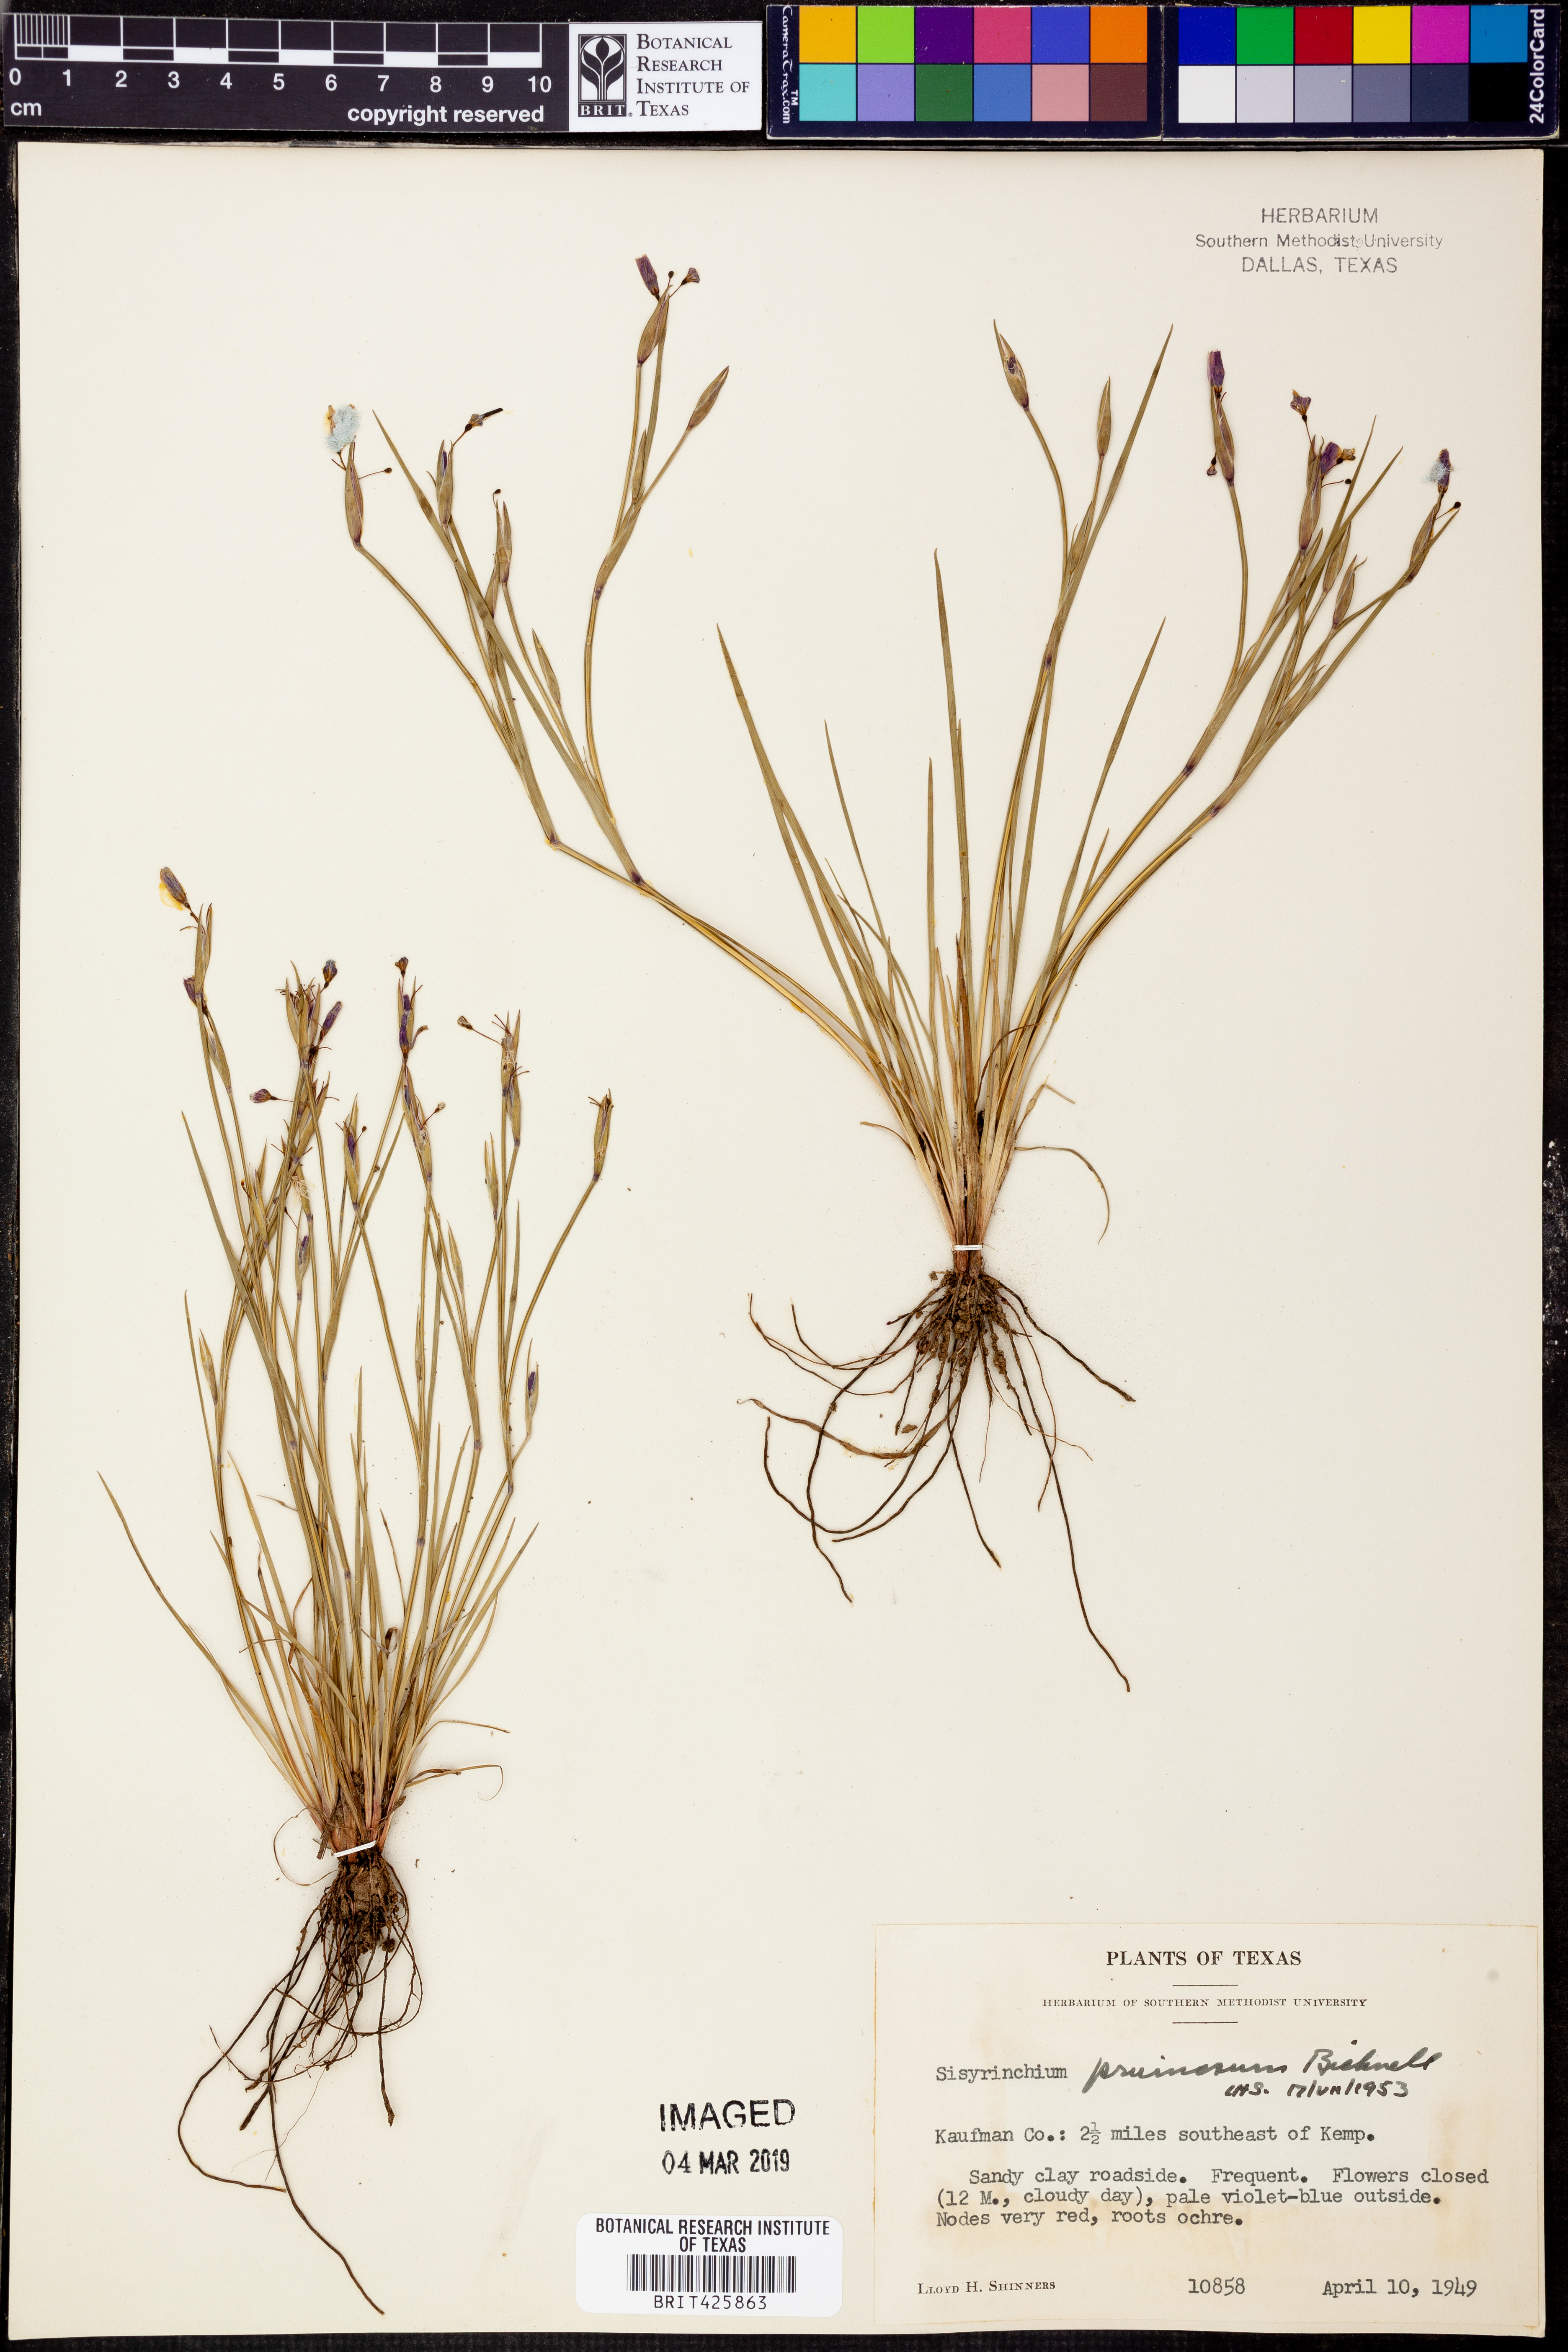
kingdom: Plantae
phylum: Tracheophyta
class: Liliopsida
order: Asparagales
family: Iridaceae
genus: Sisyrinchium
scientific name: Sisyrinchium pruinosum
